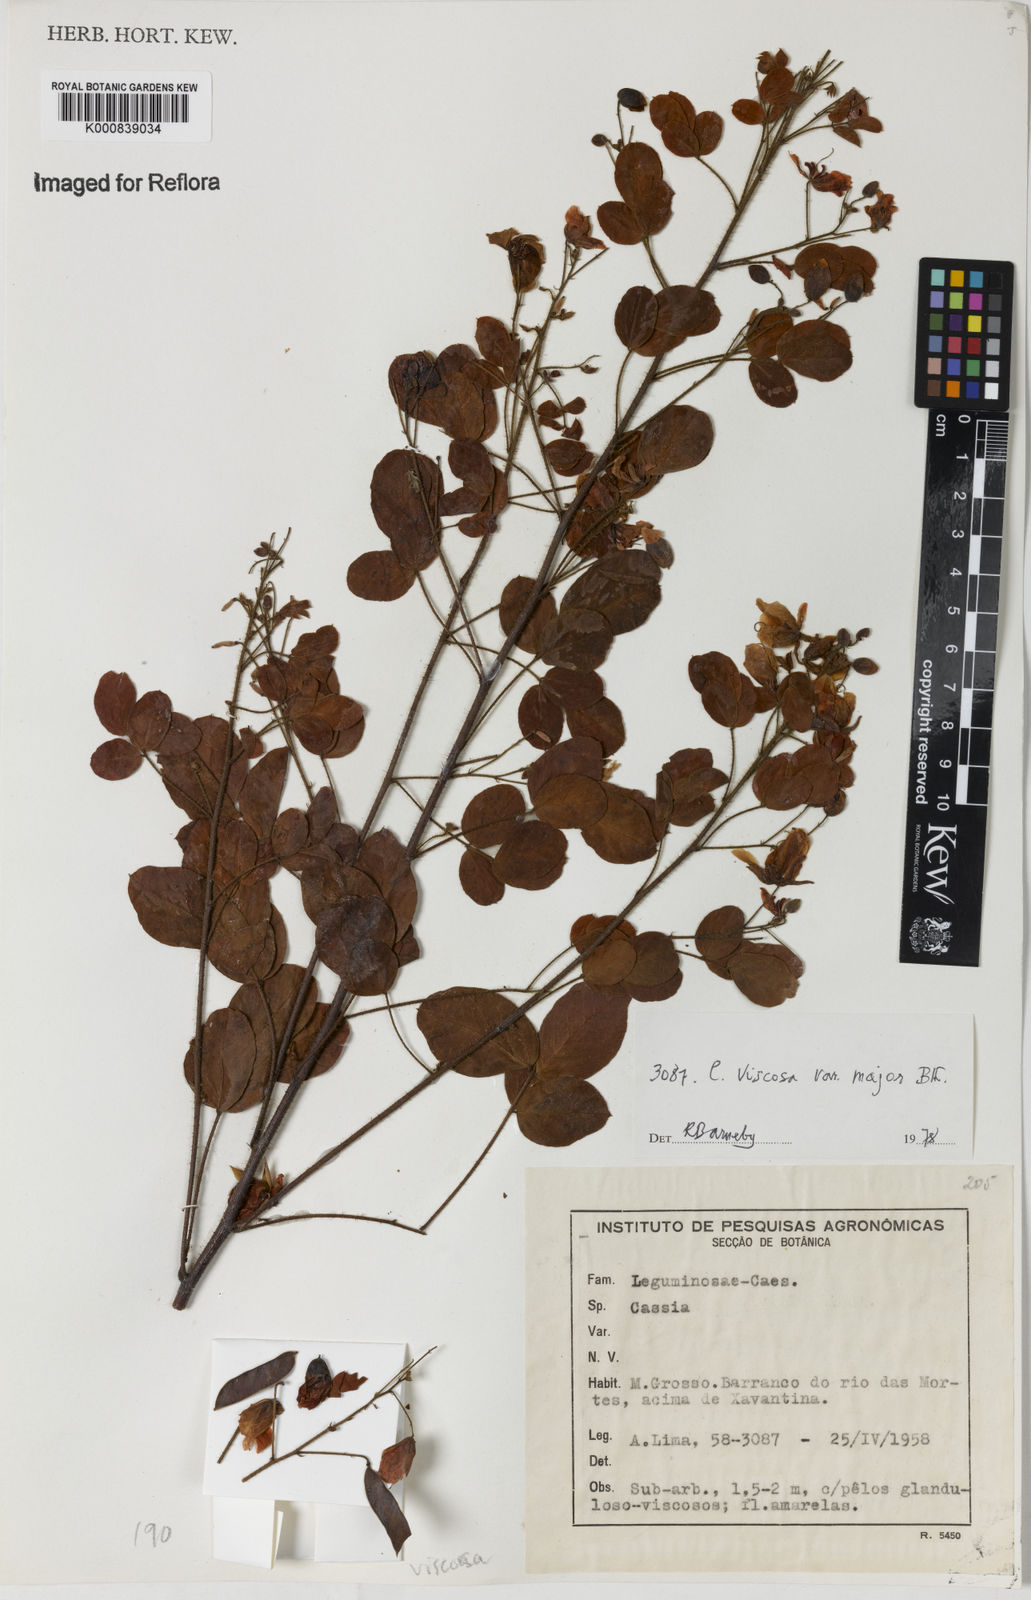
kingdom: Plantae
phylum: Tracheophyta
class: Magnoliopsida
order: Fabales
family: Fabaceae
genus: Chamaecrista
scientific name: Chamaecrista viscosa
